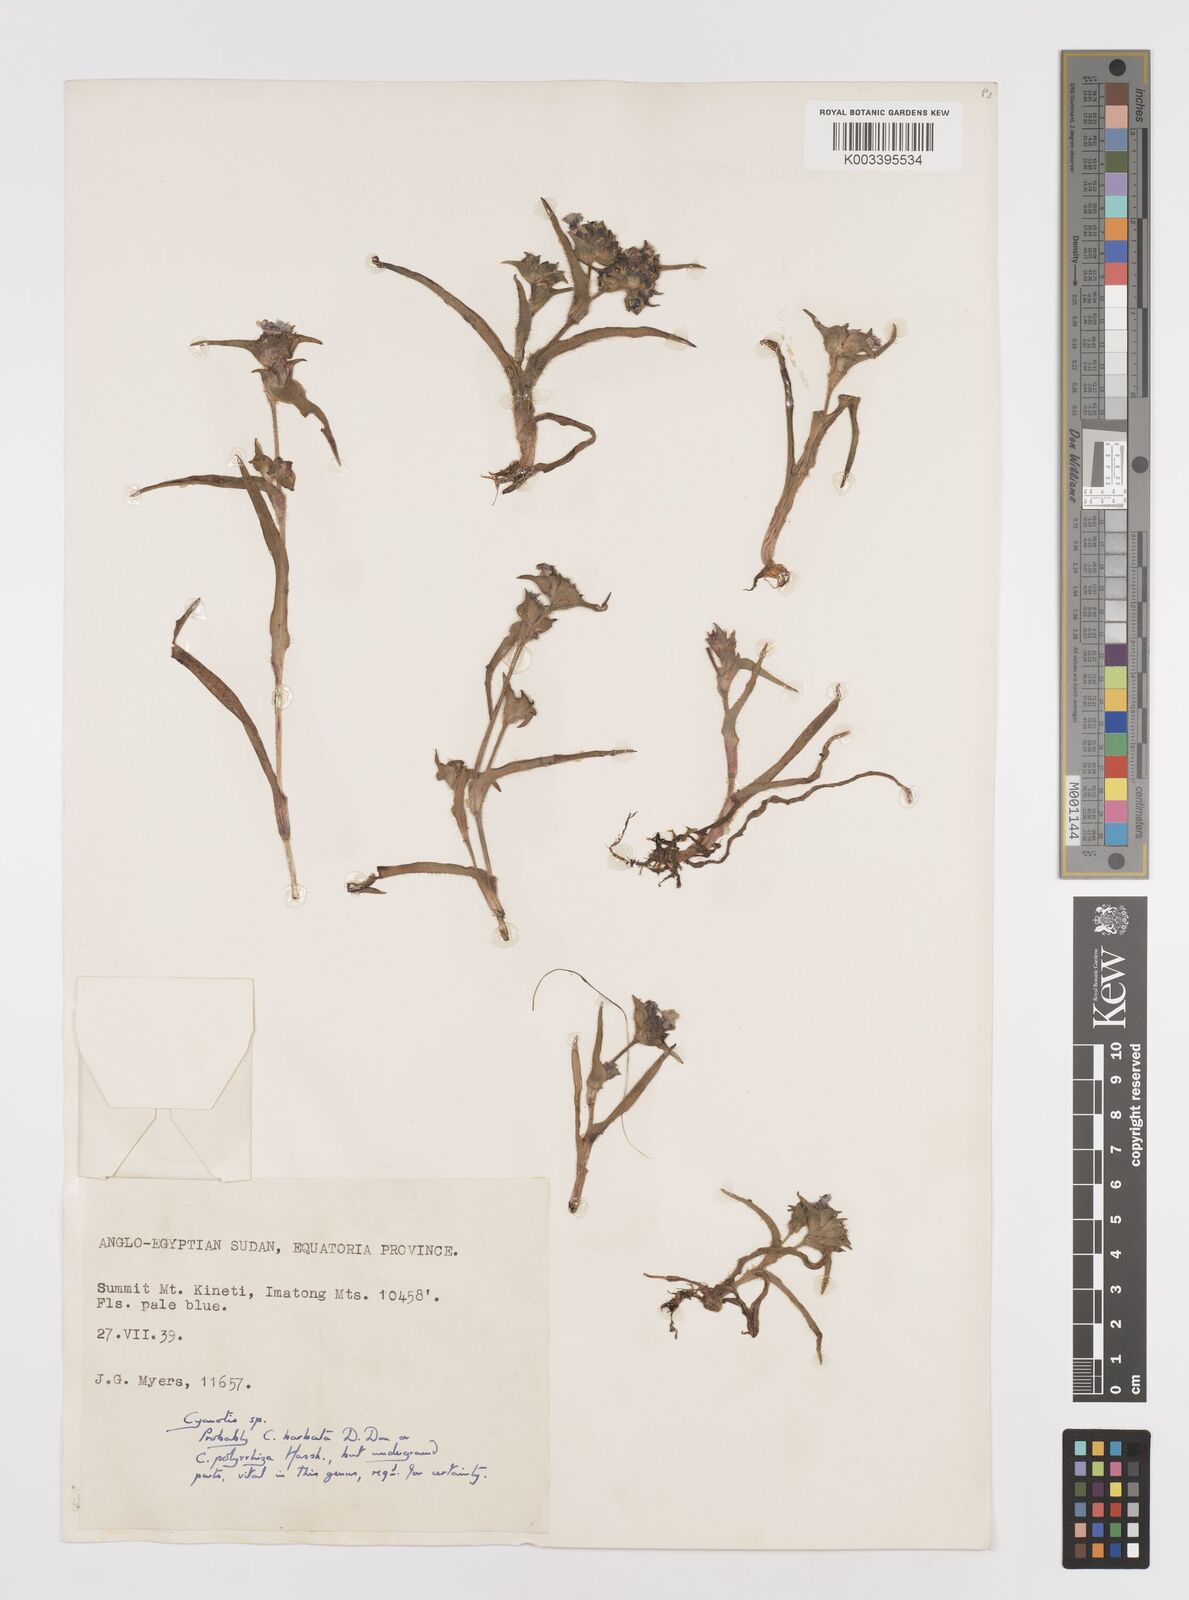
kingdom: Plantae
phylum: Tracheophyta
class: Liliopsida
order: Commelinales
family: Commelinaceae
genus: Cyanotis
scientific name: Cyanotis vaga
